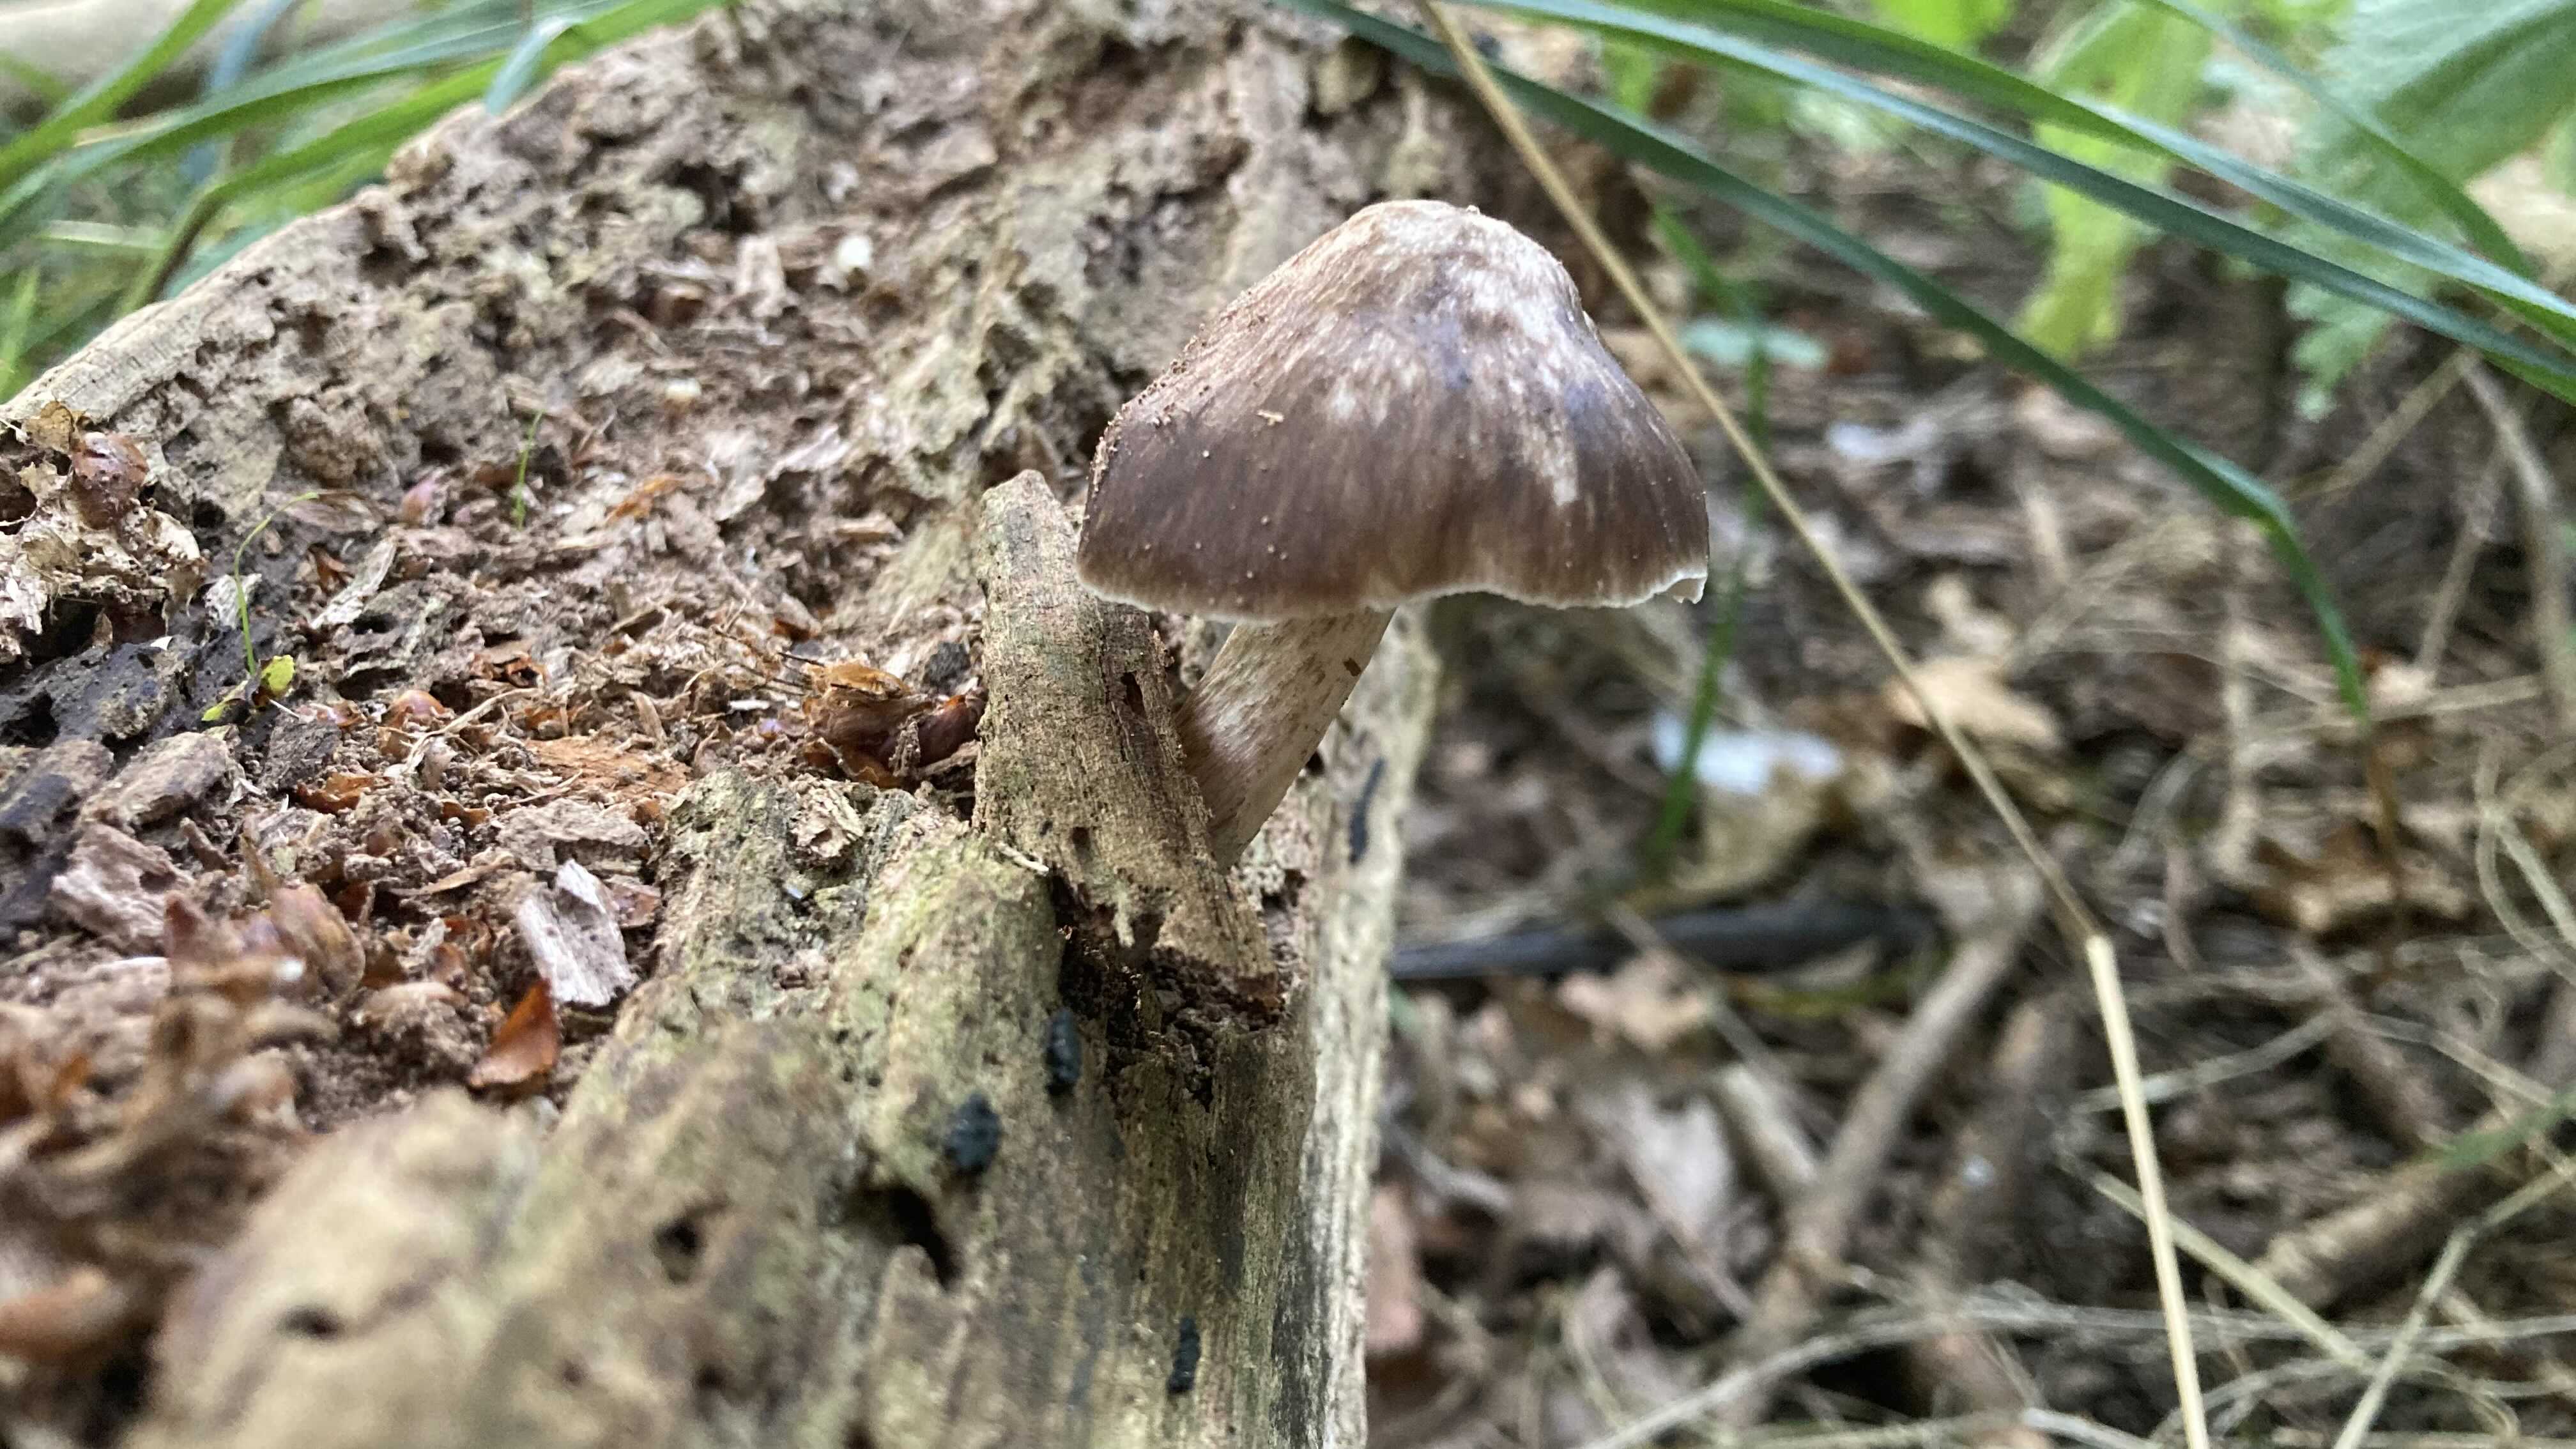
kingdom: Fungi
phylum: Basidiomycota
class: Agaricomycetes
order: Agaricales
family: Pluteaceae
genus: Pluteus
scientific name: Pluteus cervinus
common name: sodfarvet skærmhat
